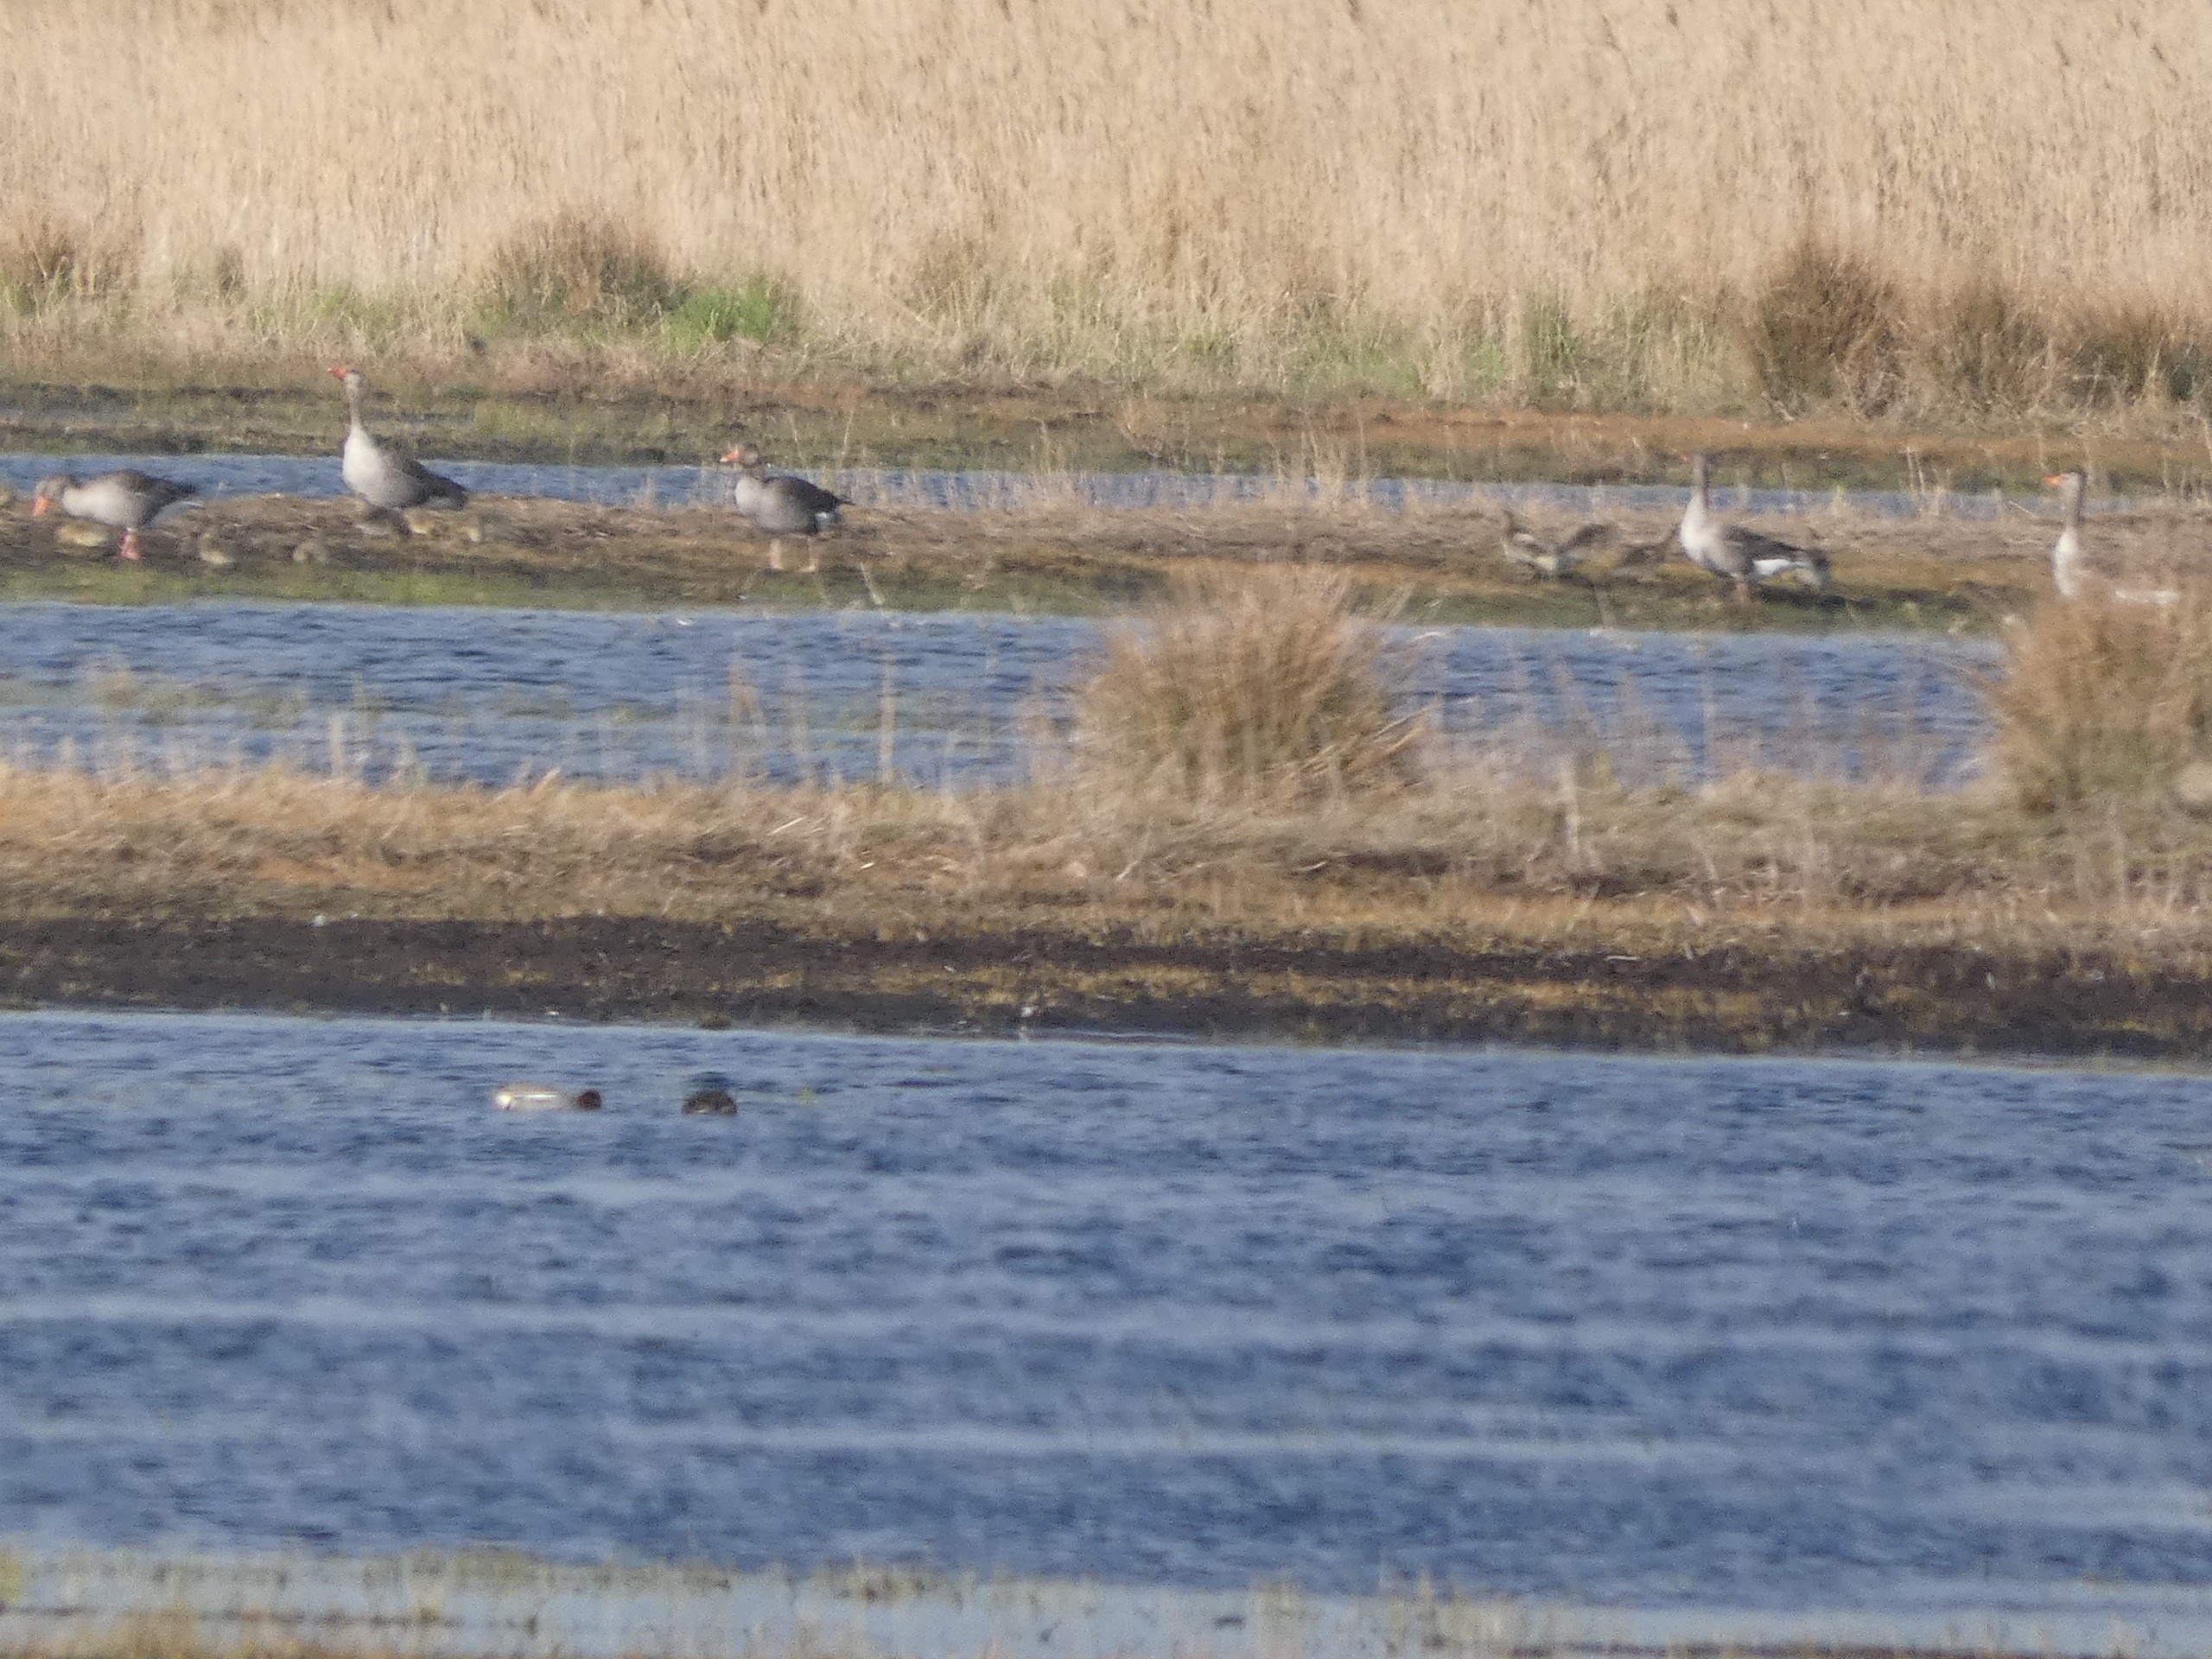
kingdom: Animalia
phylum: Chordata
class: Aves
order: Anseriformes
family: Anatidae
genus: Anser
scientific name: Anser anser
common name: Grågås
